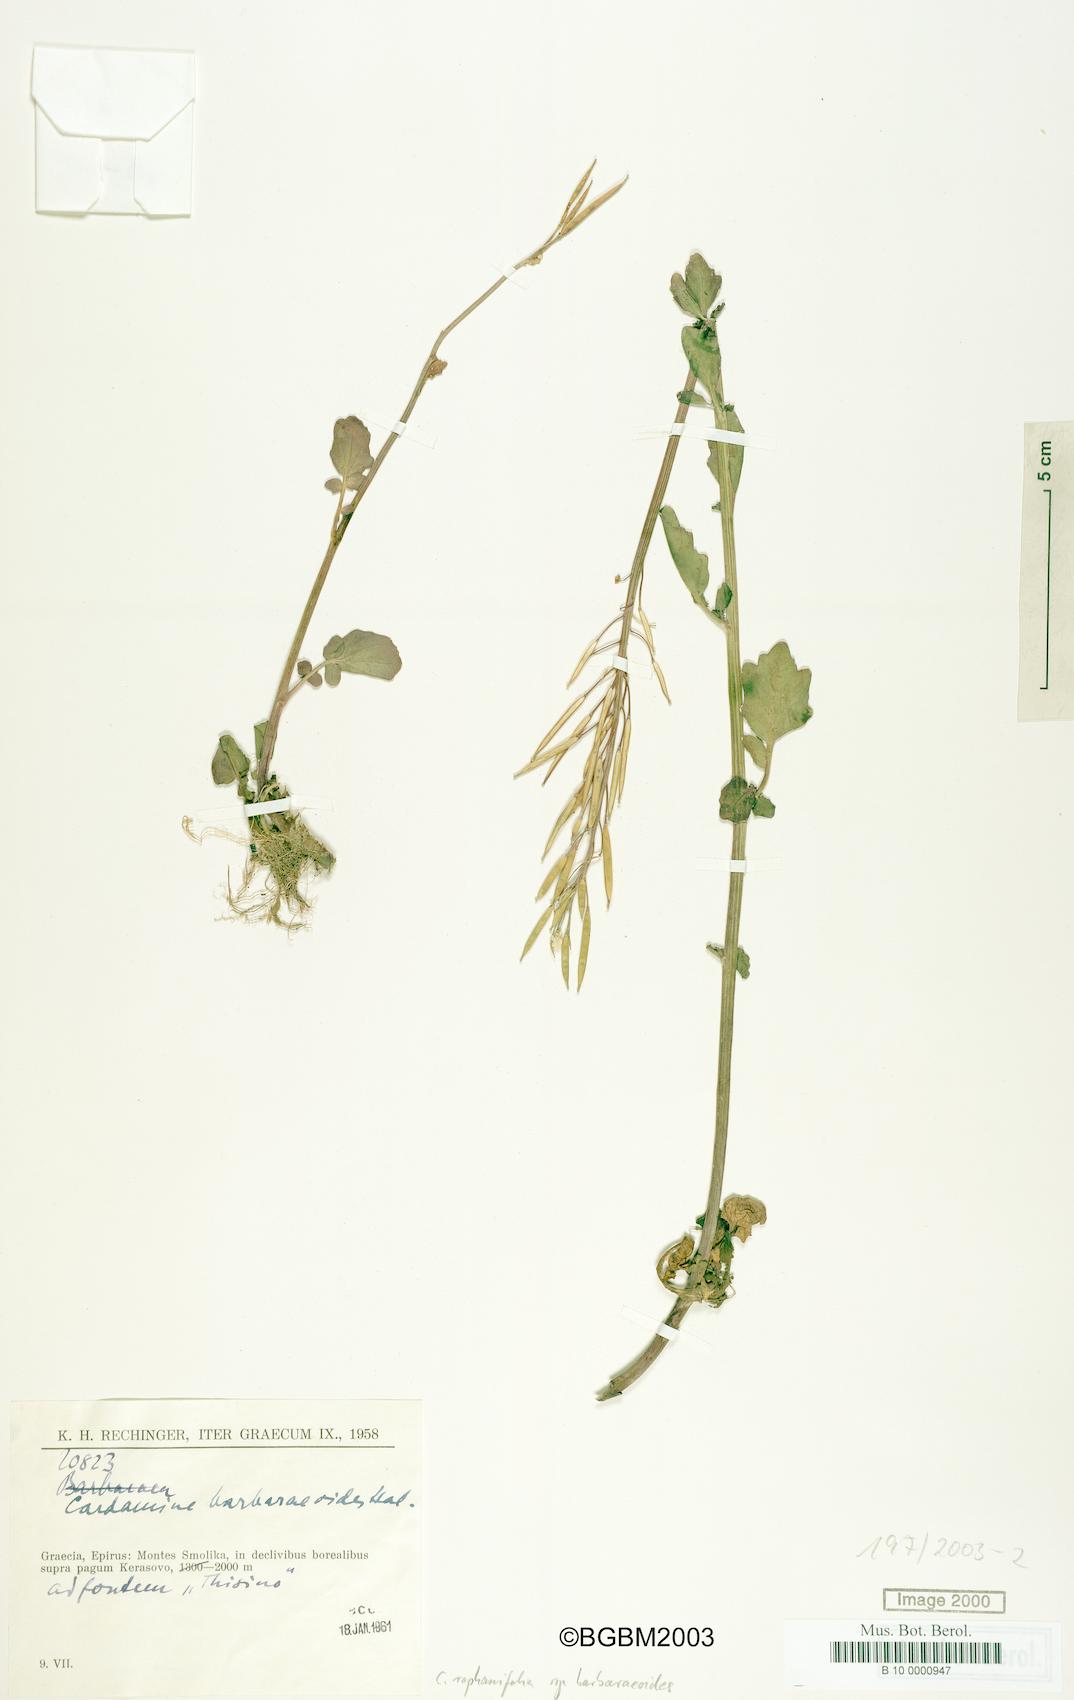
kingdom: Plantae
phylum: Tracheophyta
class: Magnoliopsida
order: Brassicales
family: Brassicaceae
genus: Cardamine
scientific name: Cardamine raphanifolia
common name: Greater cuckooflower
